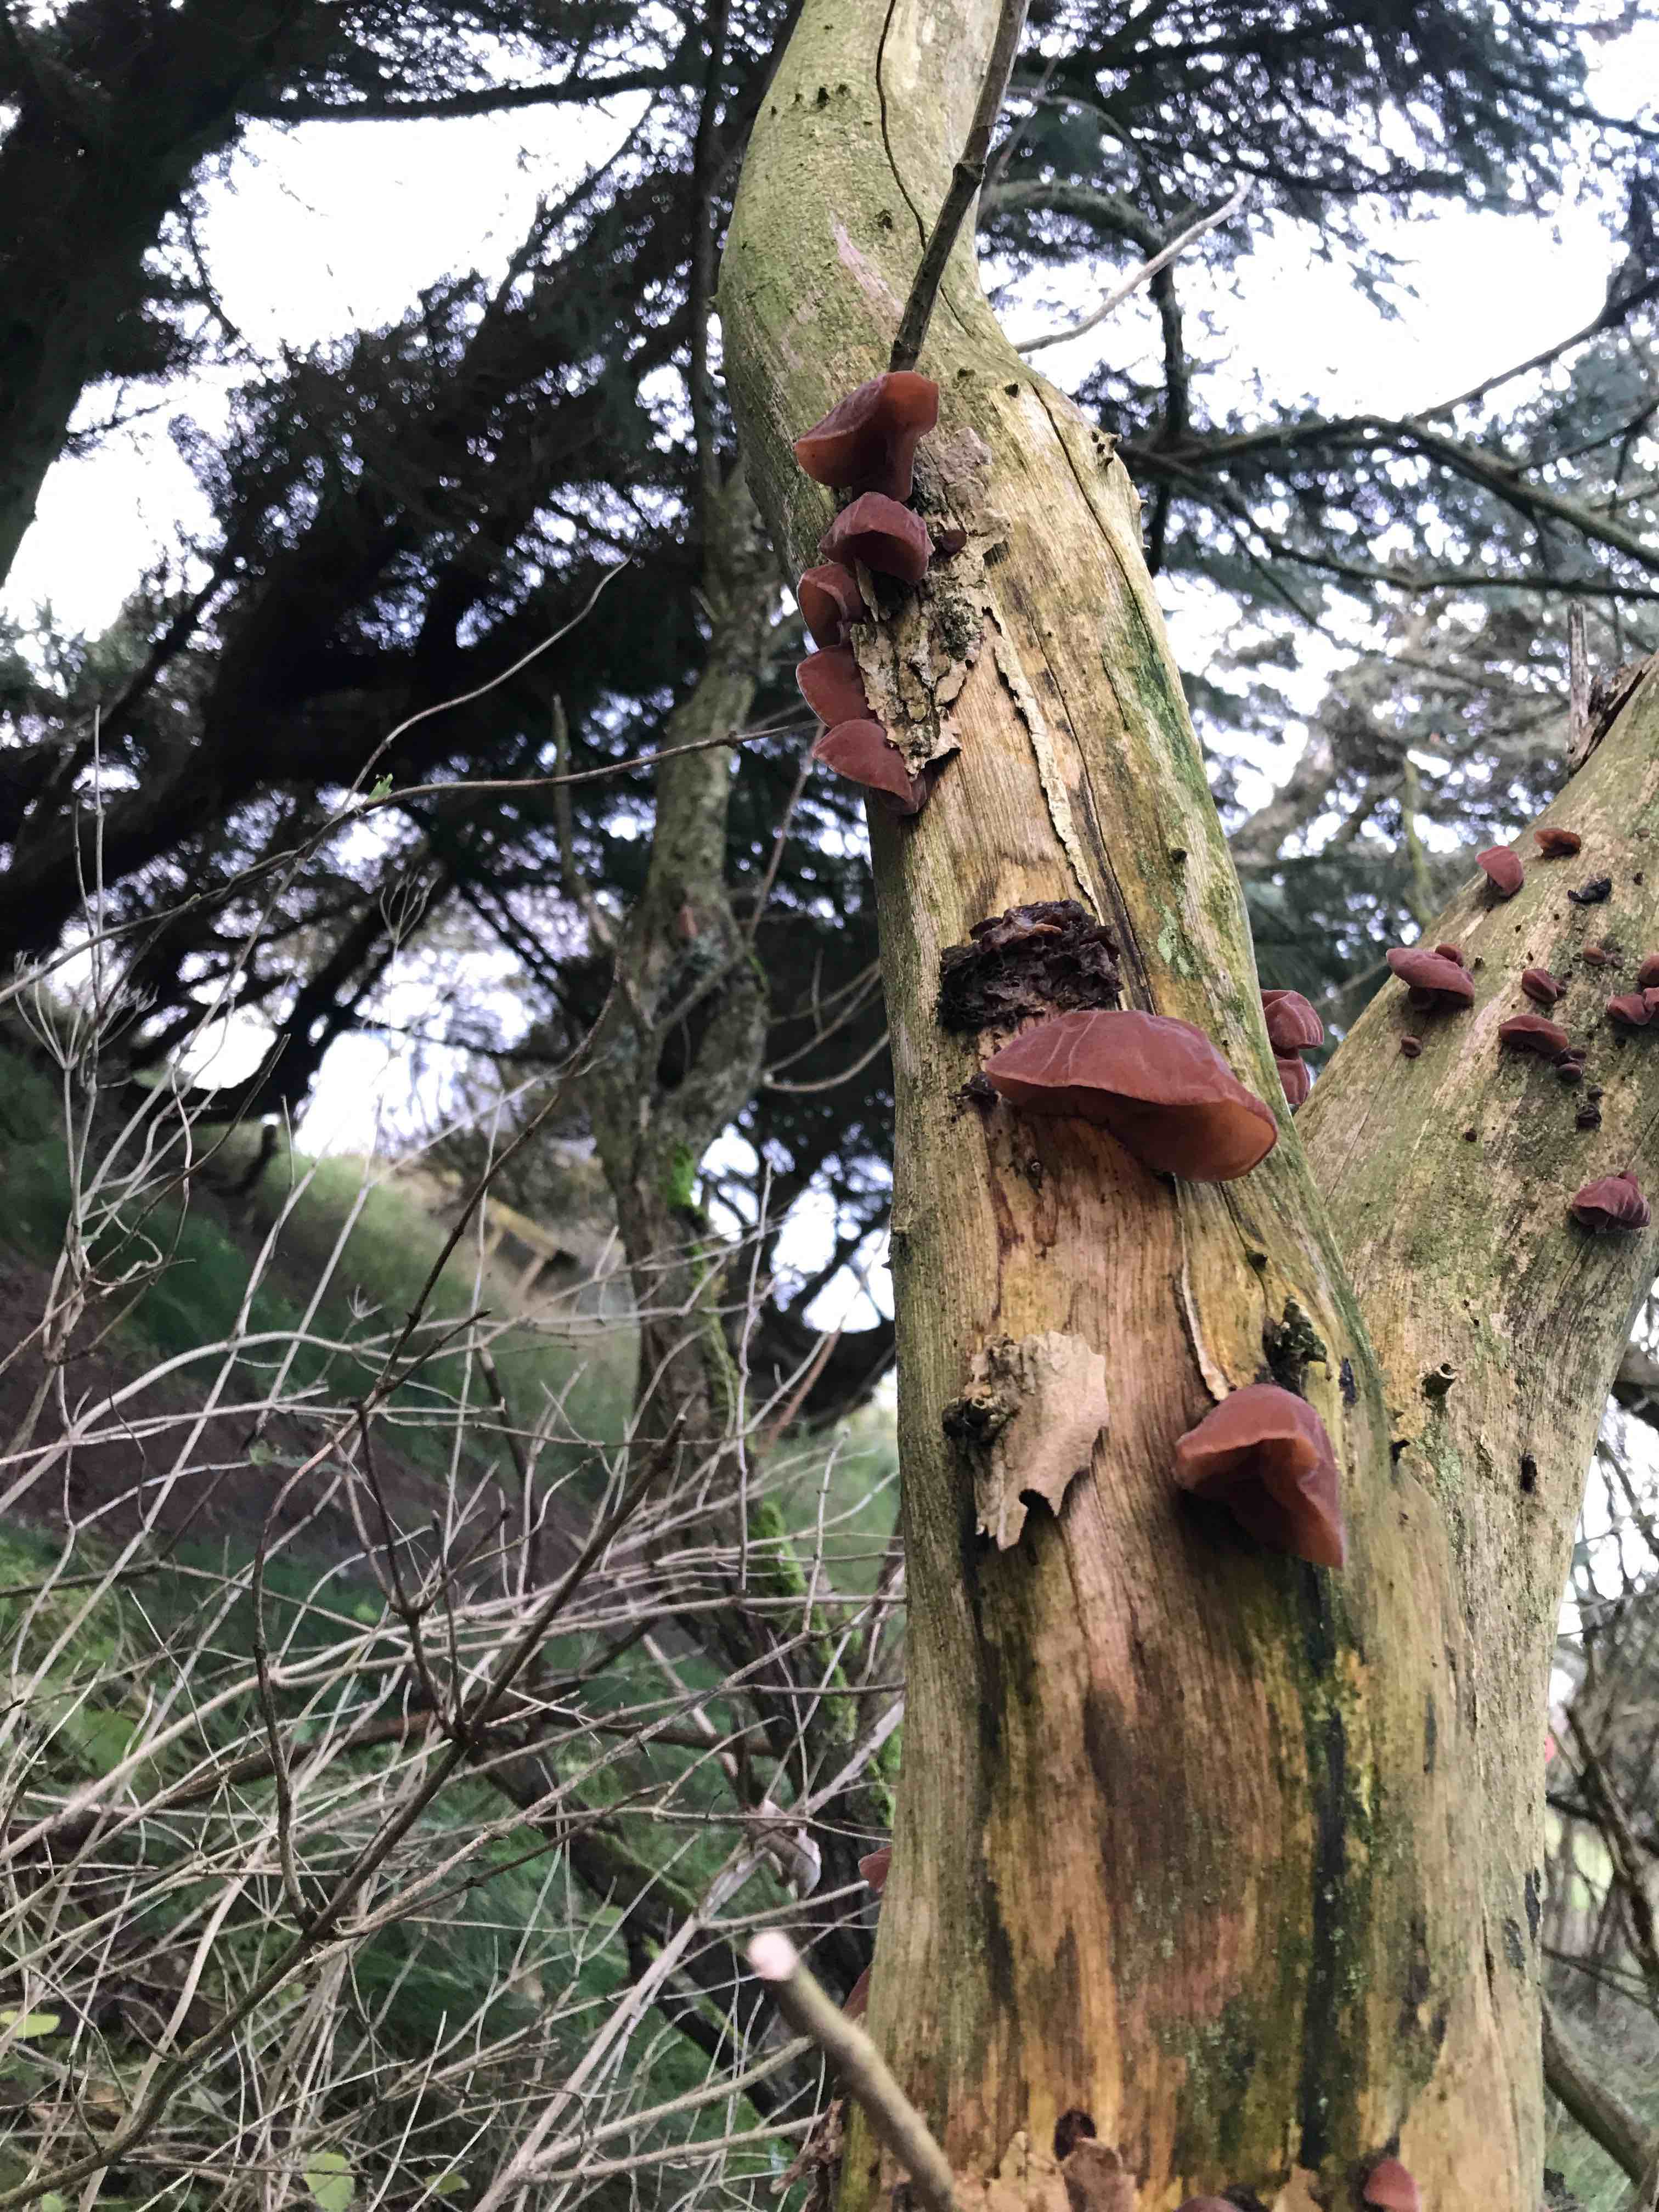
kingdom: Fungi
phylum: Basidiomycota
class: Agaricomycetes
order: Auriculariales
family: Auriculariaceae
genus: Auricularia
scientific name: Auricularia auricula-judae
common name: almindelig judasøre
